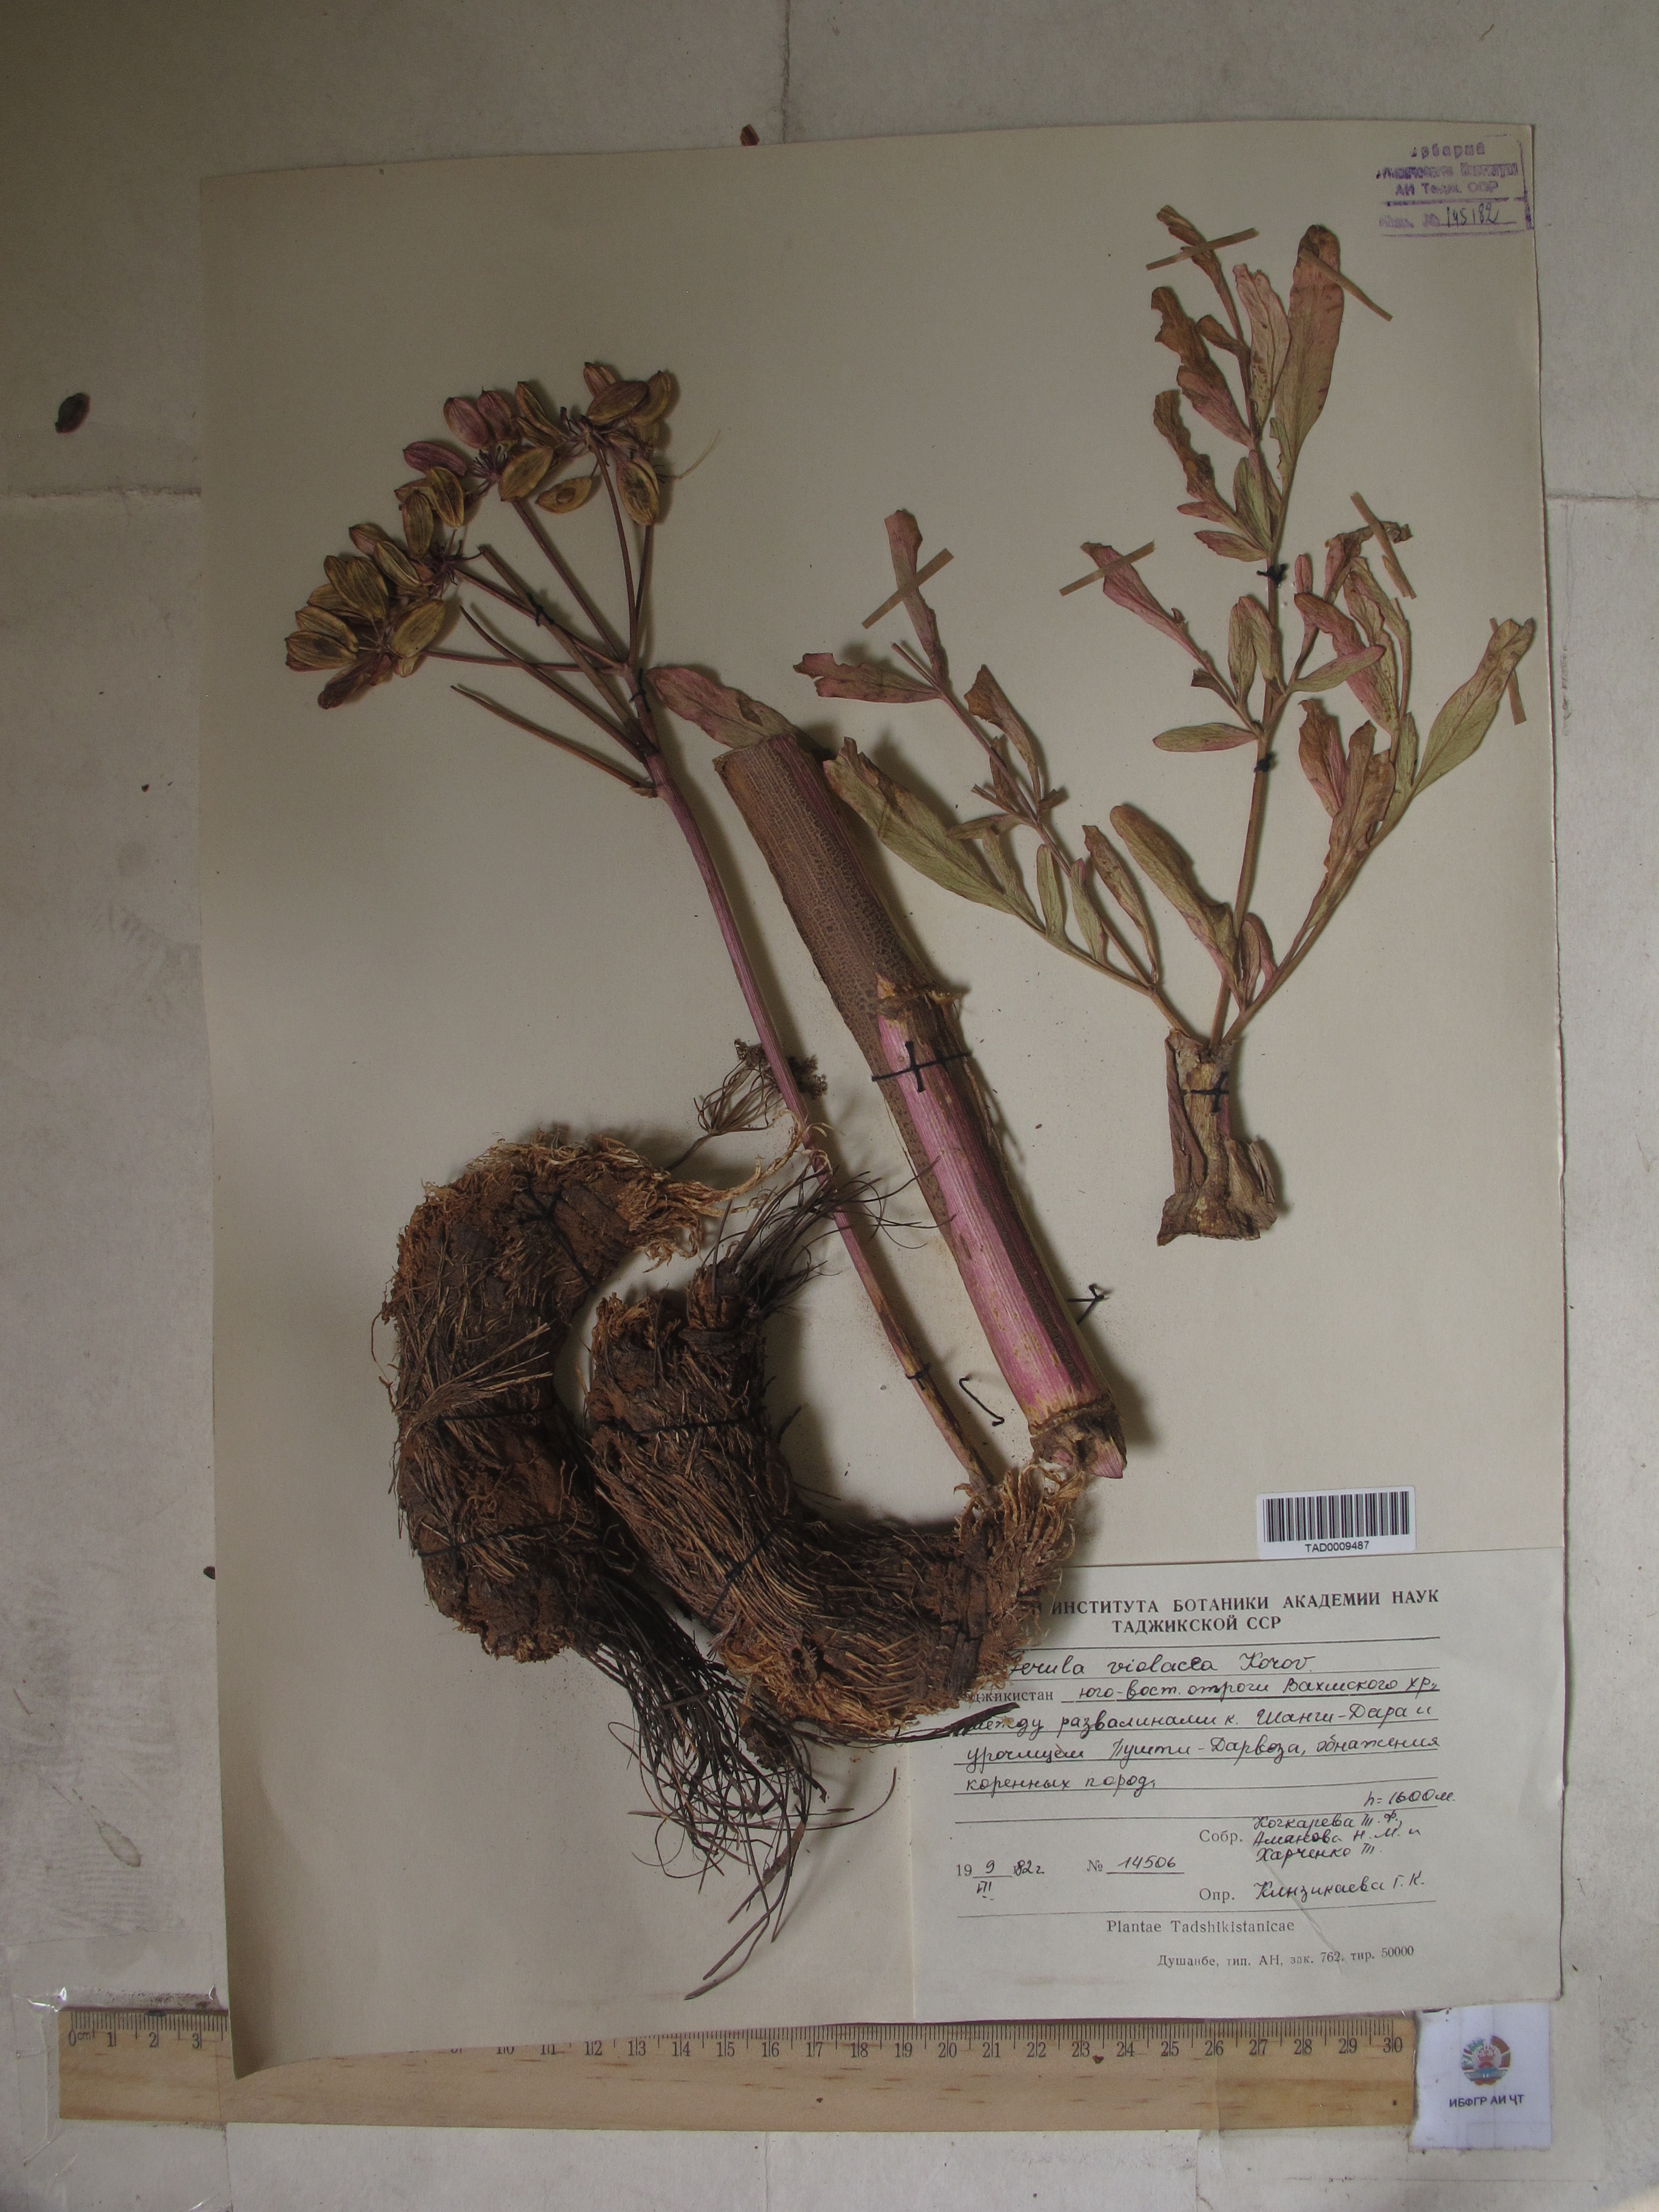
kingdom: Plantae
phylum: Tracheophyta
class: Magnoliopsida
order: Apiales
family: Apiaceae
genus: Ferula
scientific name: Ferula violacea
